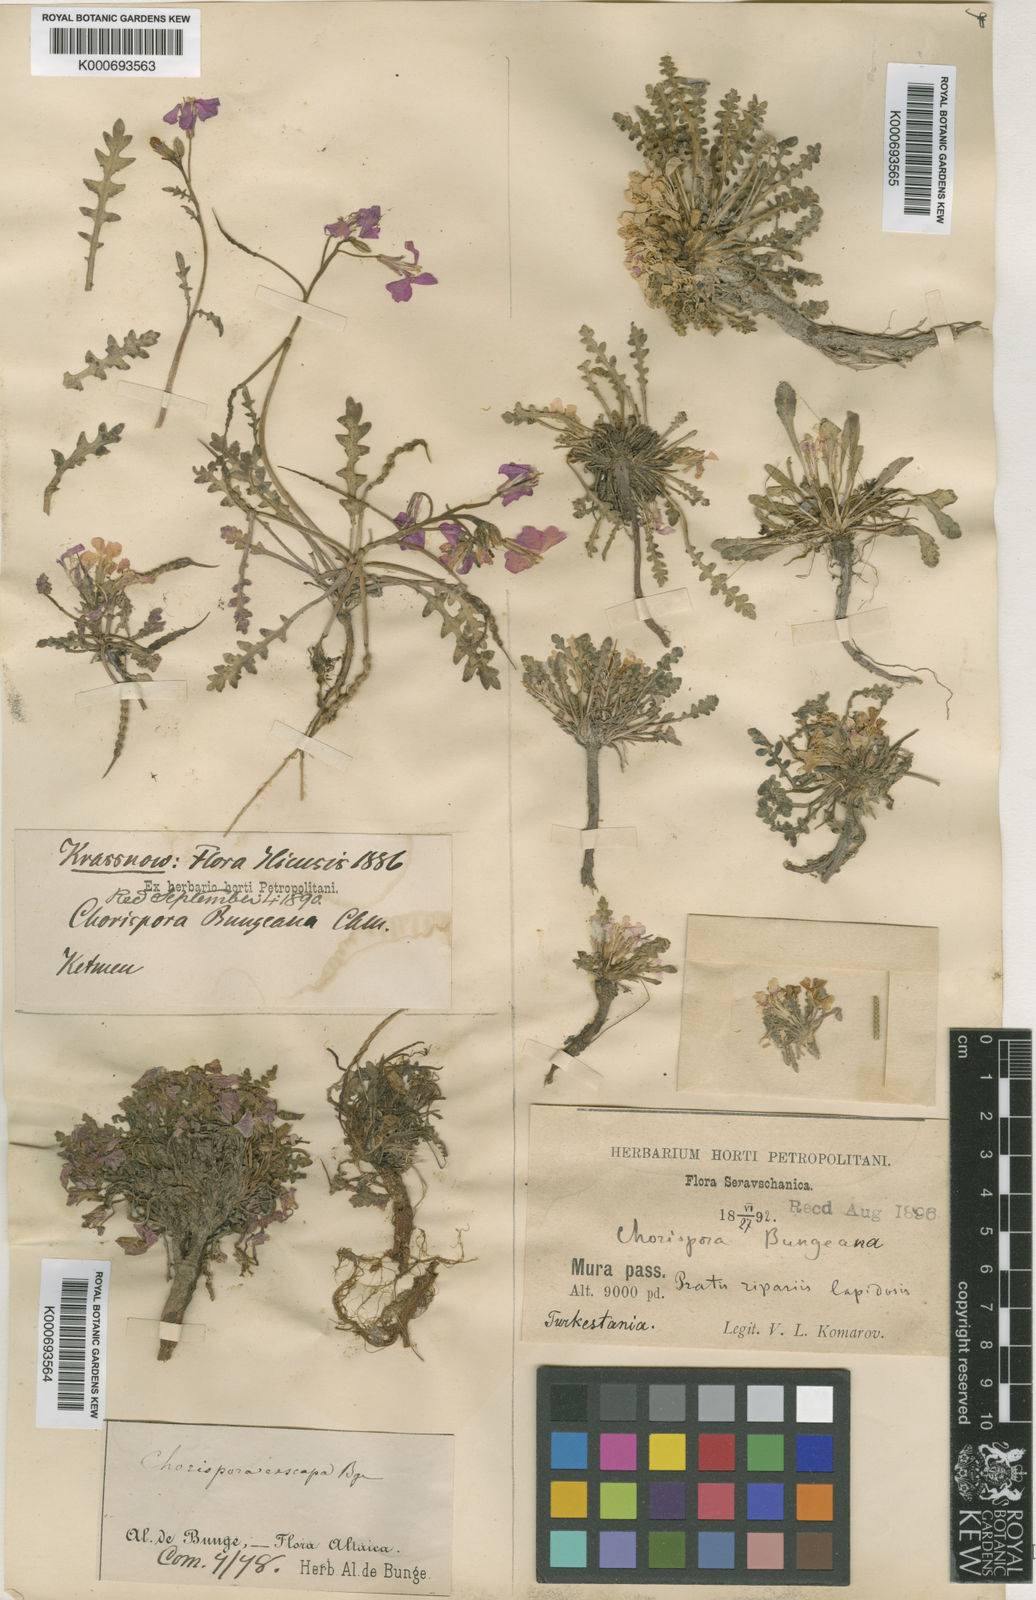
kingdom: Plantae
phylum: Tracheophyta
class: Magnoliopsida
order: Brassicales
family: Brassicaceae
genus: Chorispora
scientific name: Chorispora bungeana
